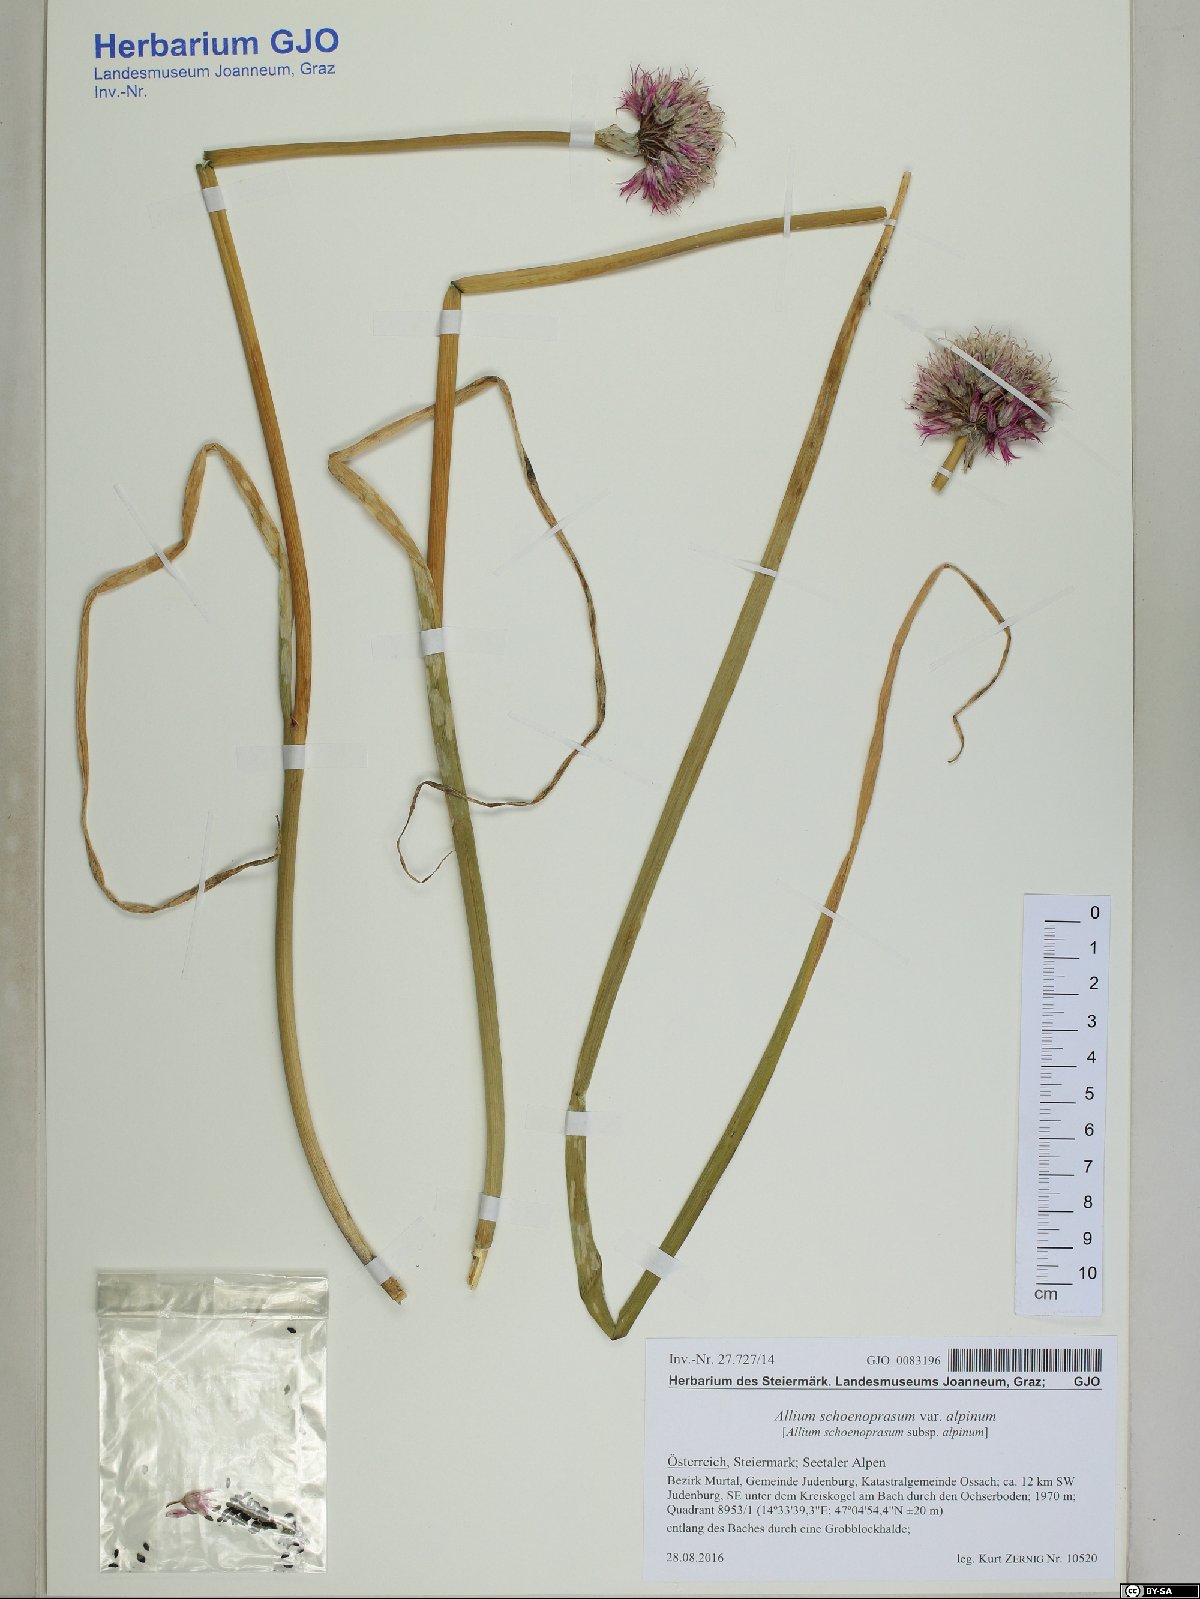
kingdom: Plantae
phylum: Tracheophyta
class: Liliopsida
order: Asparagales
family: Amaryllidaceae
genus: Allium
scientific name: Allium schoenoprasum
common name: Chives
